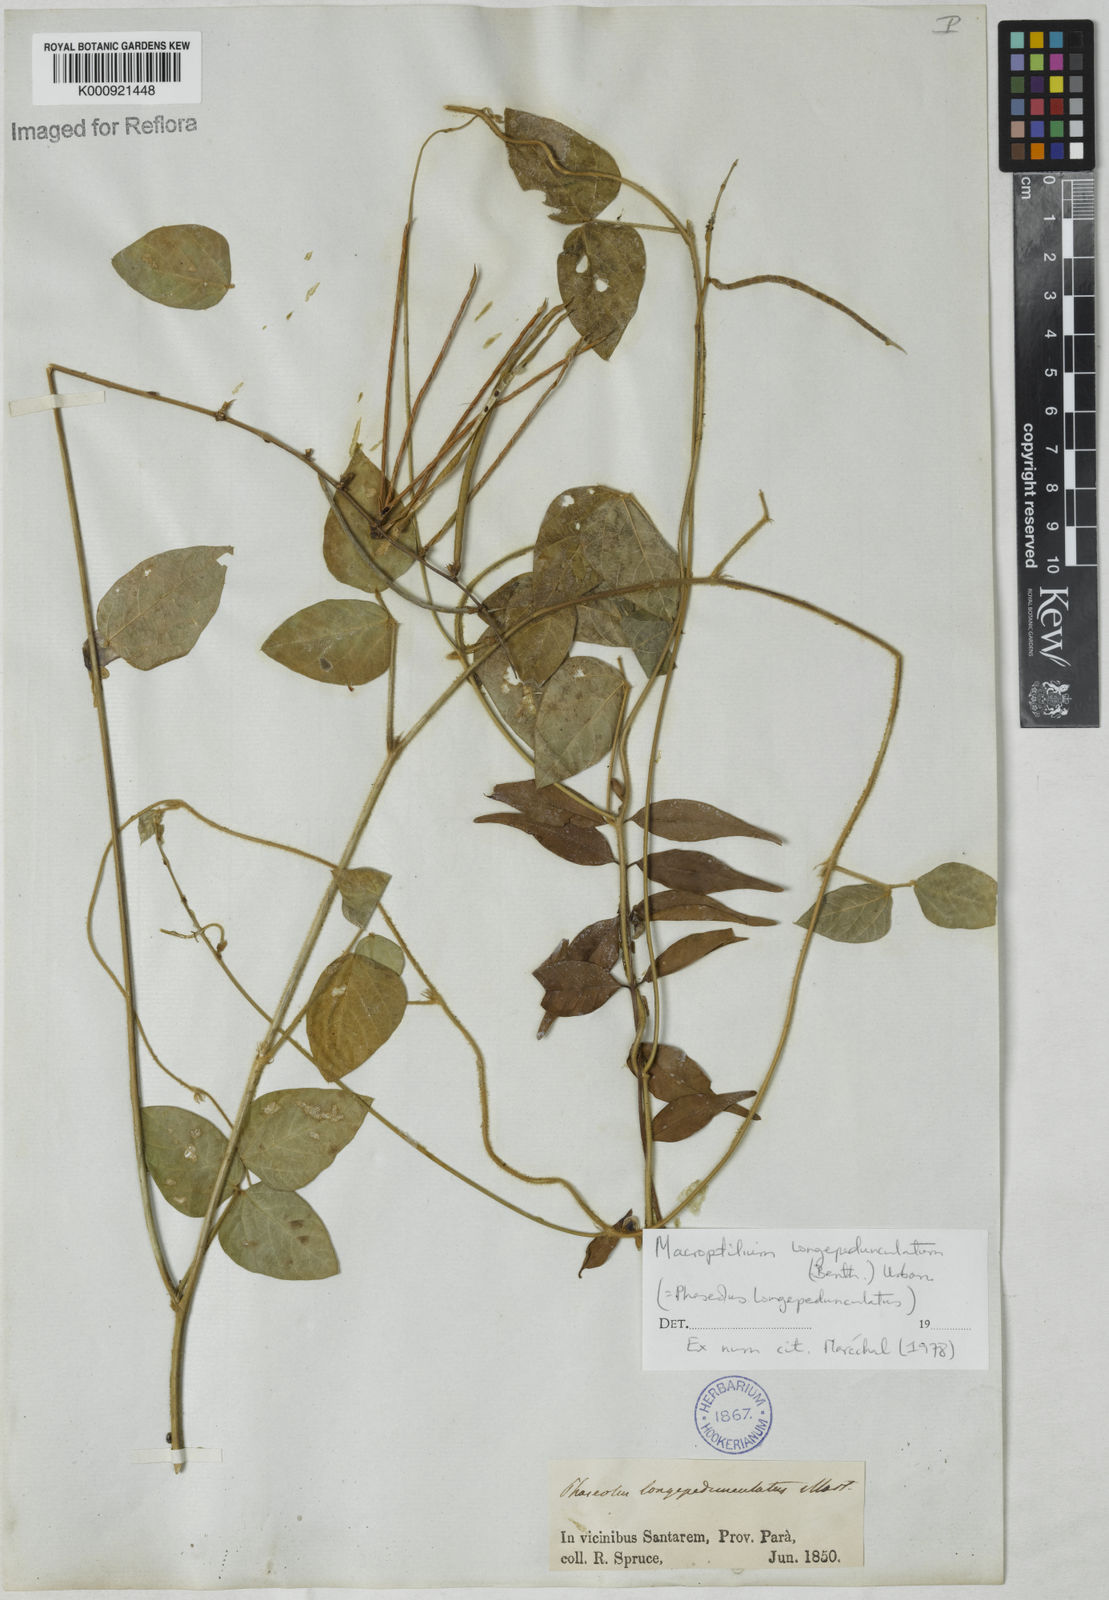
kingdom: Plantae
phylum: Tracheophyta
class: Magnoliopsida
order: Fabales
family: Fabaceae
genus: Macroptilium
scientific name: Macroptilium
